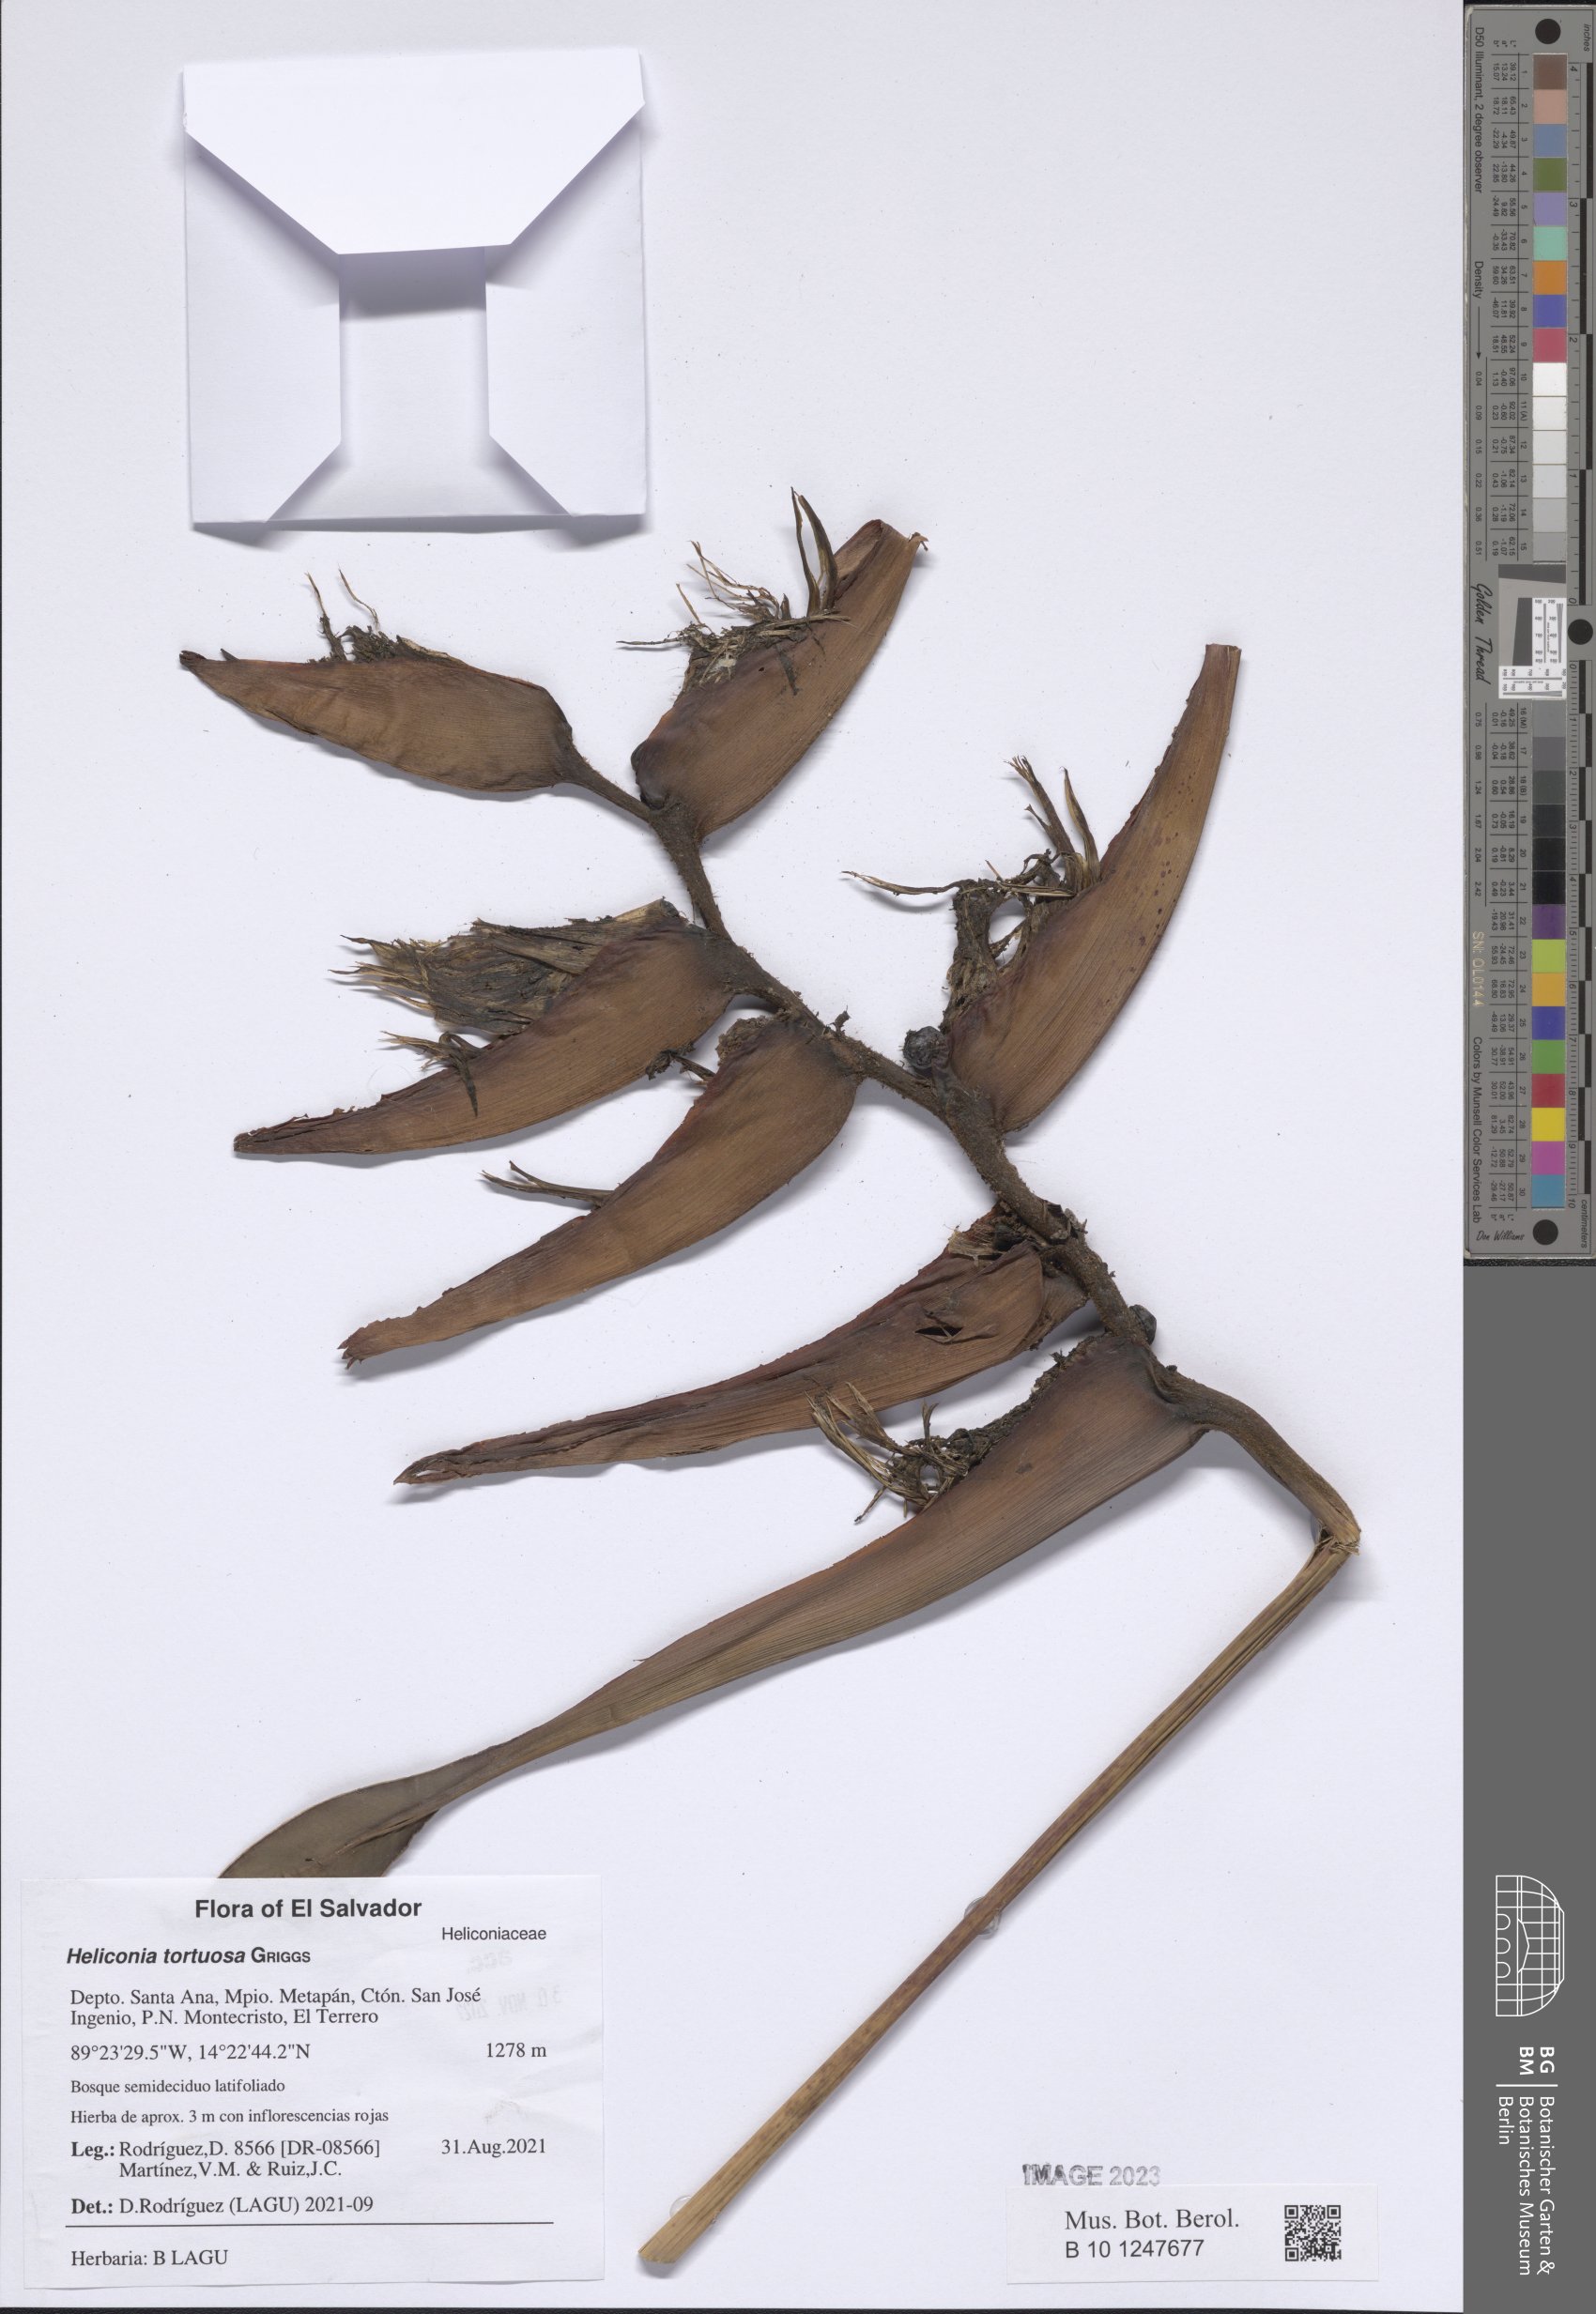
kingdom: Plantae
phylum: Tracheophyta
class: Liliopsida
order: Zingiberales
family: Heliconiaceae
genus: Heliconia
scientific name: Heliconia tortuosa
